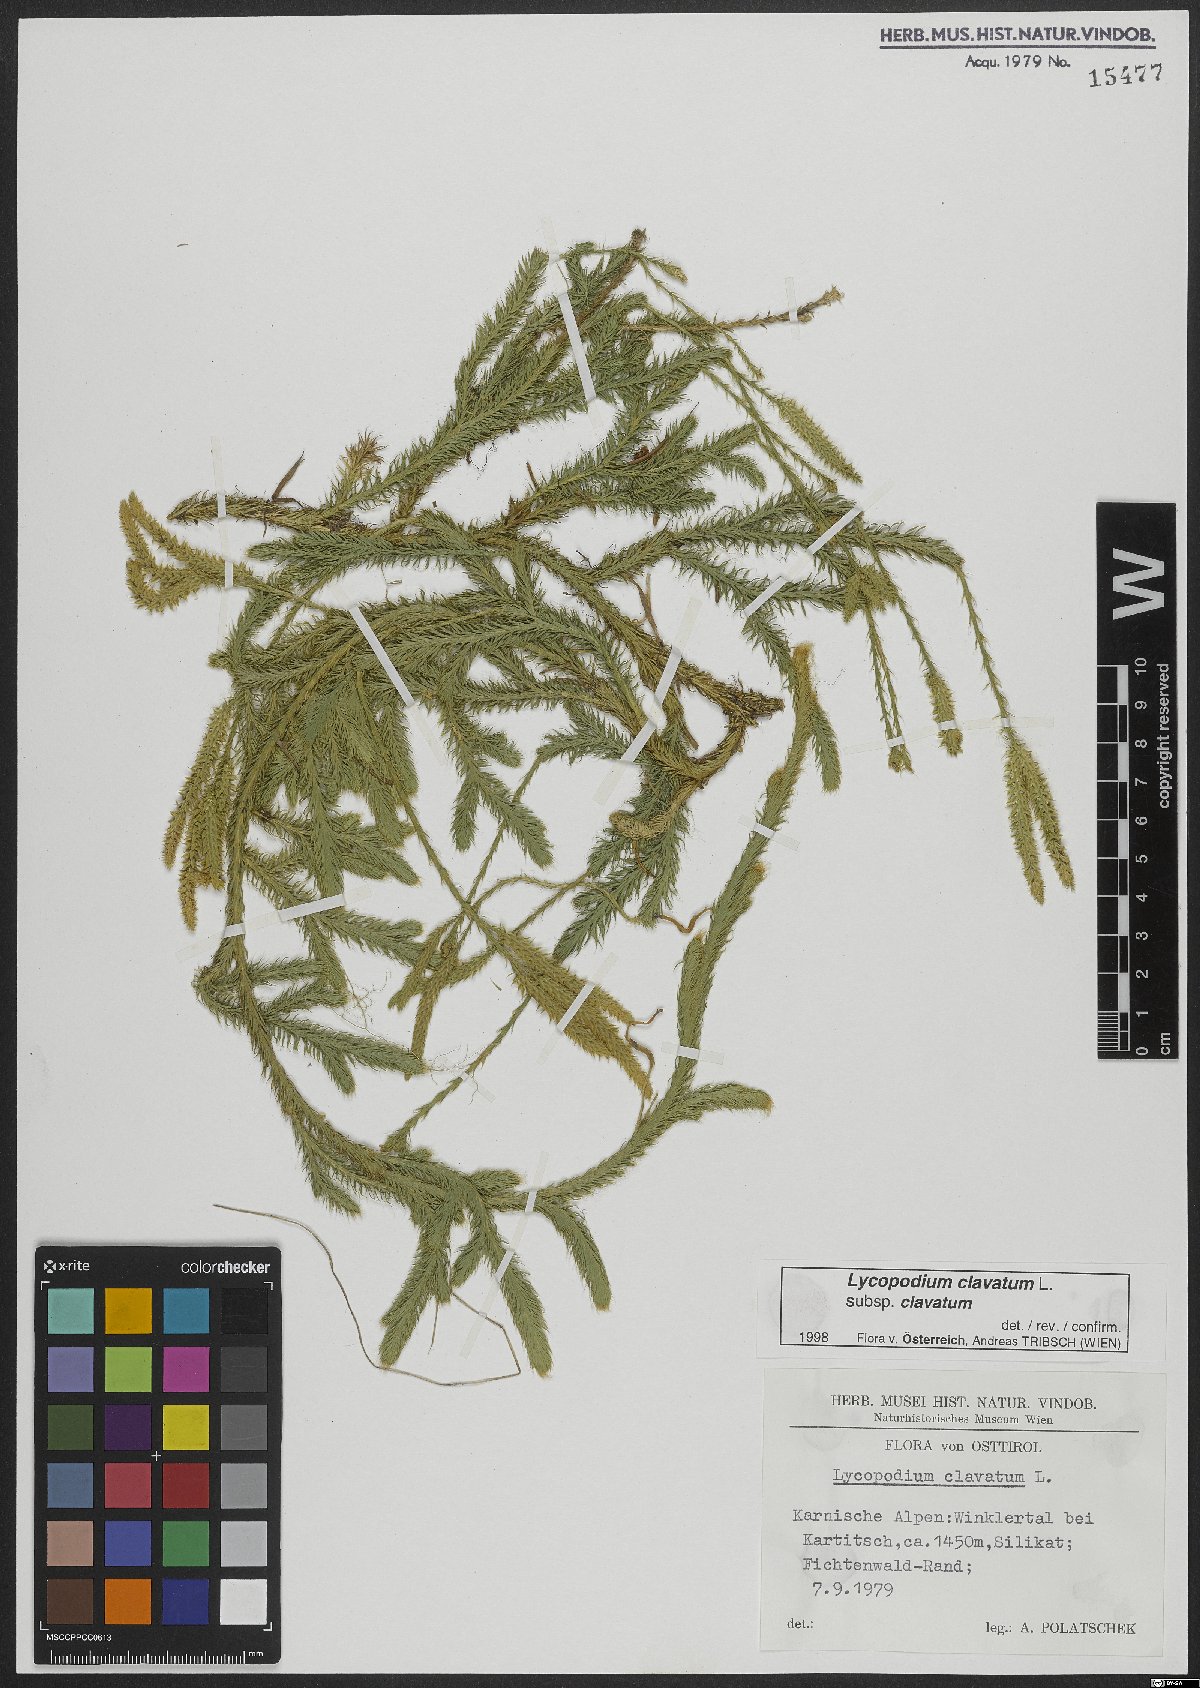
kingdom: Plantae
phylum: Tracheophyta
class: Lycopodiopsida
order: Lycopodiales
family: Lycopodiaceae
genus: Lycopodium
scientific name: Lycopodium clavatum
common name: Stag's-horn clubmoss
